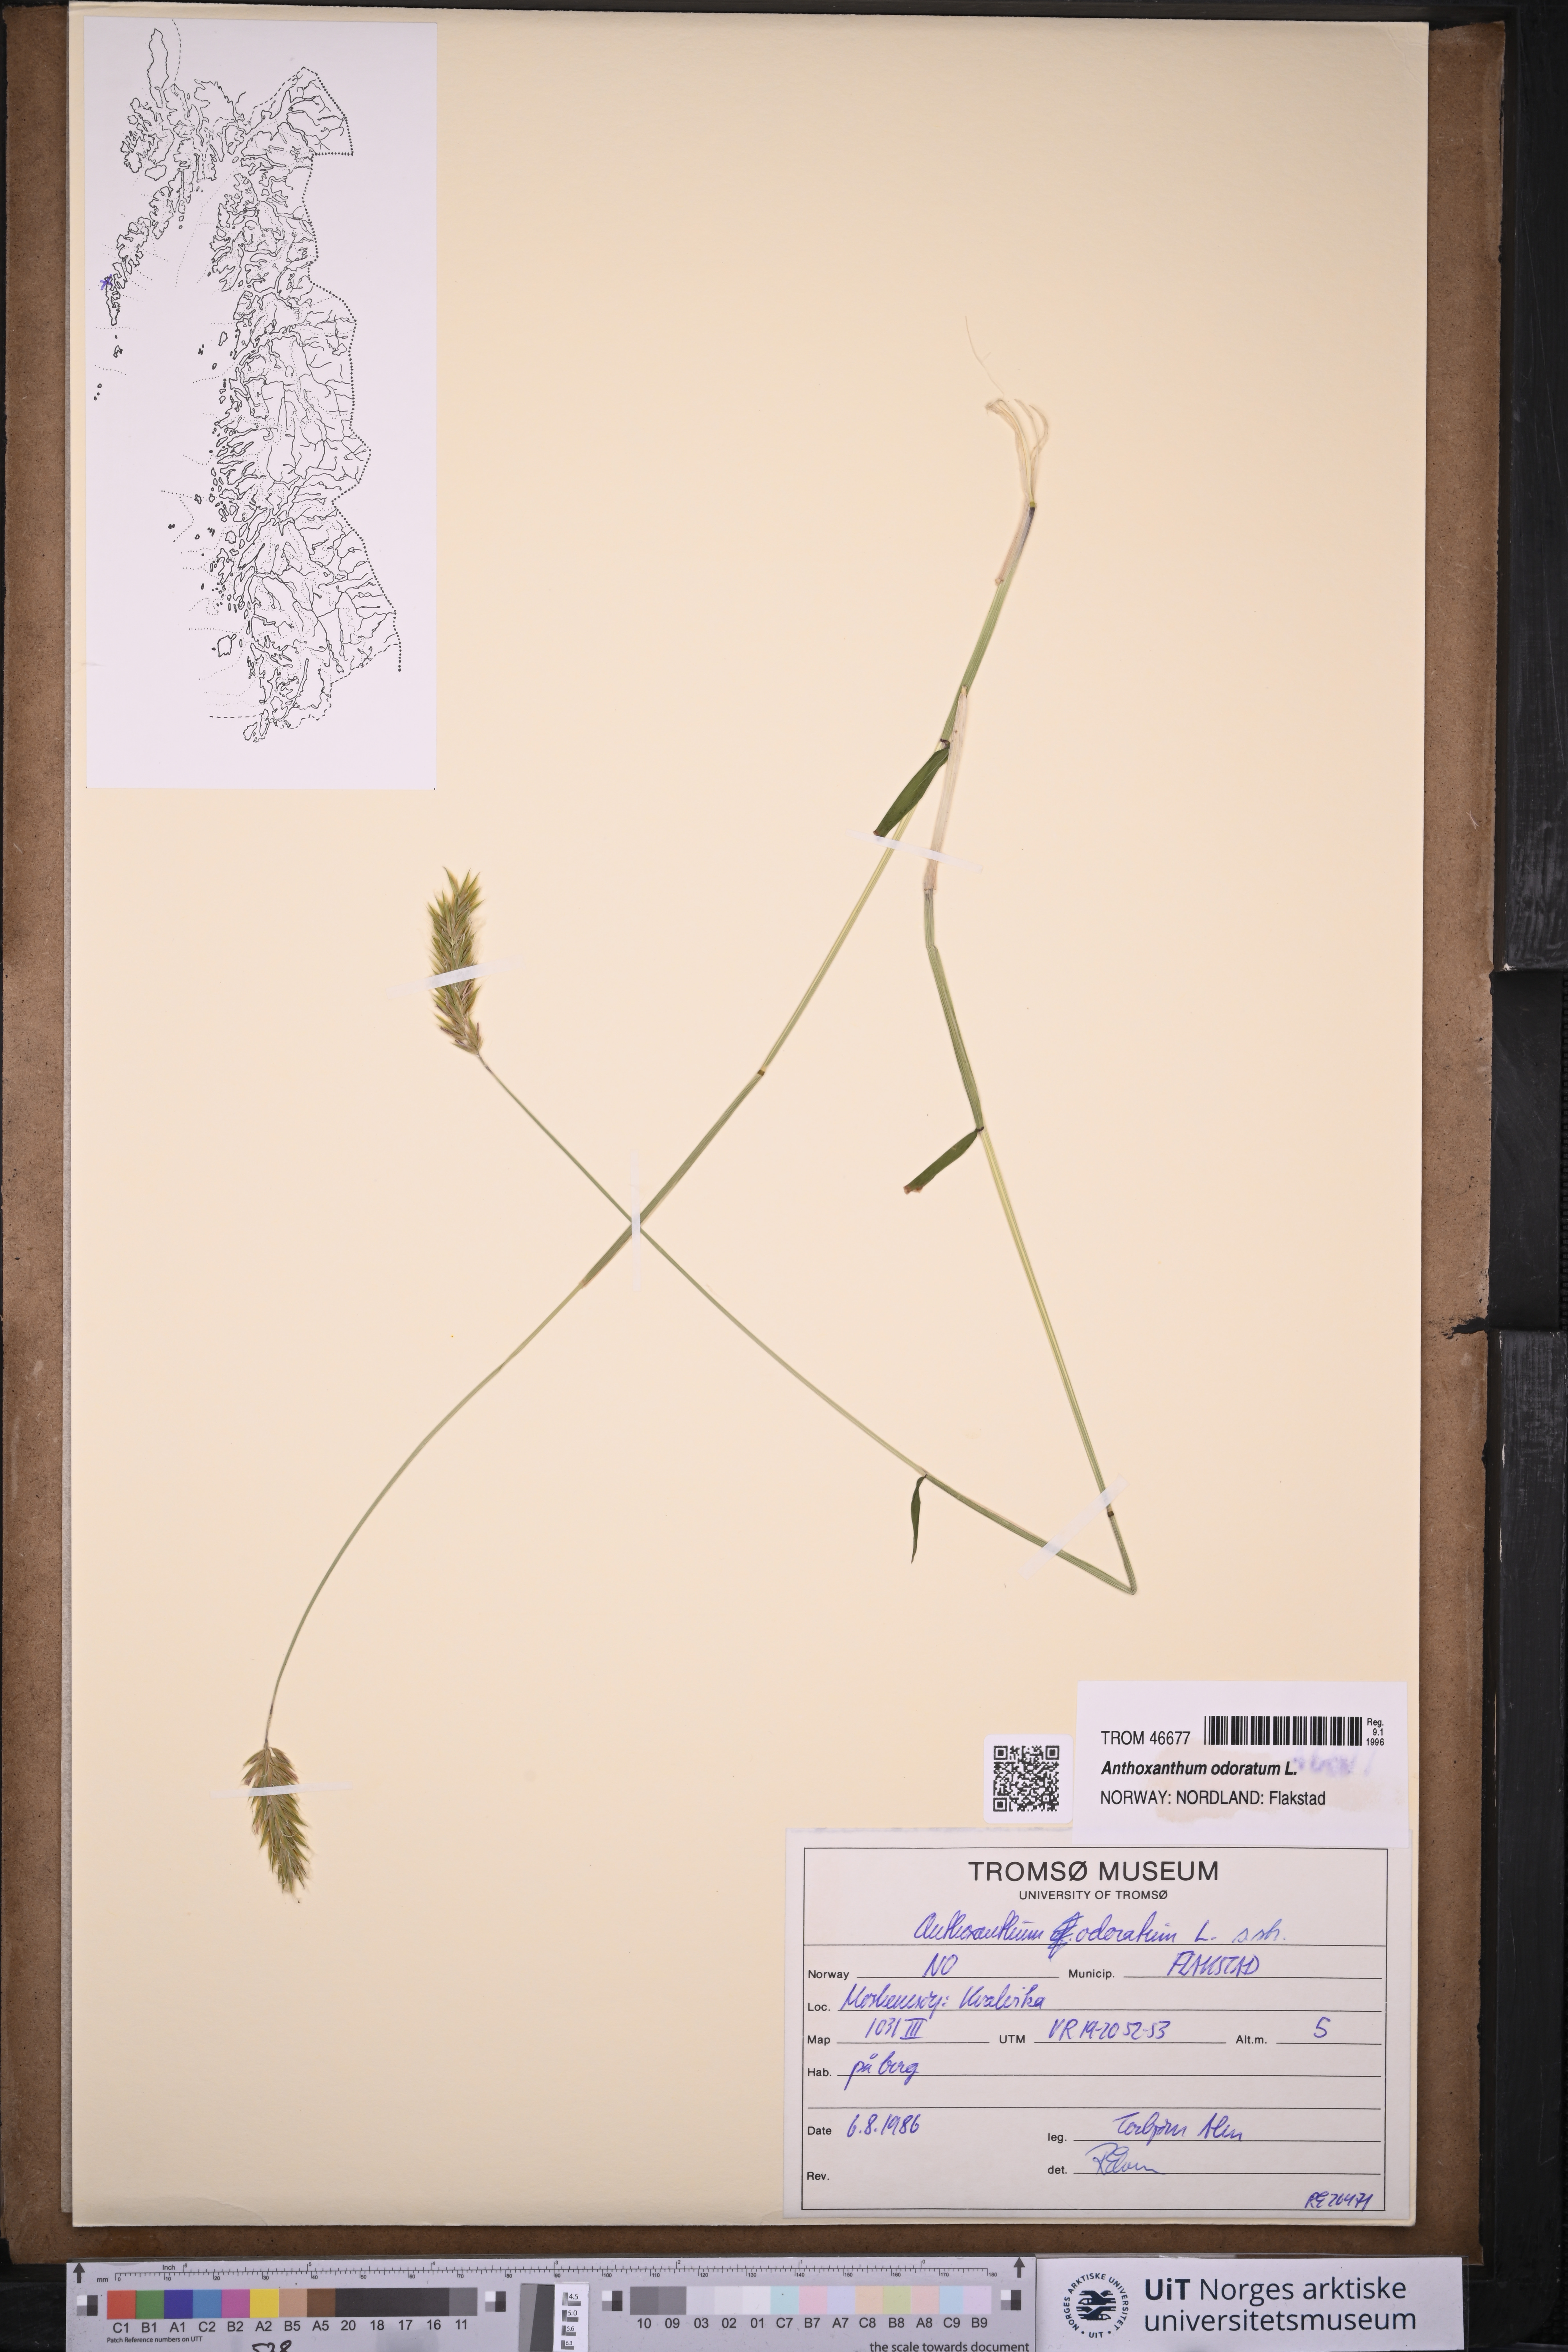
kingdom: Plantae
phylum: Tracheophyta
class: Liliopsida
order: Poales
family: Poaceae
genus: Anthoxanthum
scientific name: Anthoxanthum odoratum
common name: Sweet vernalgrass
